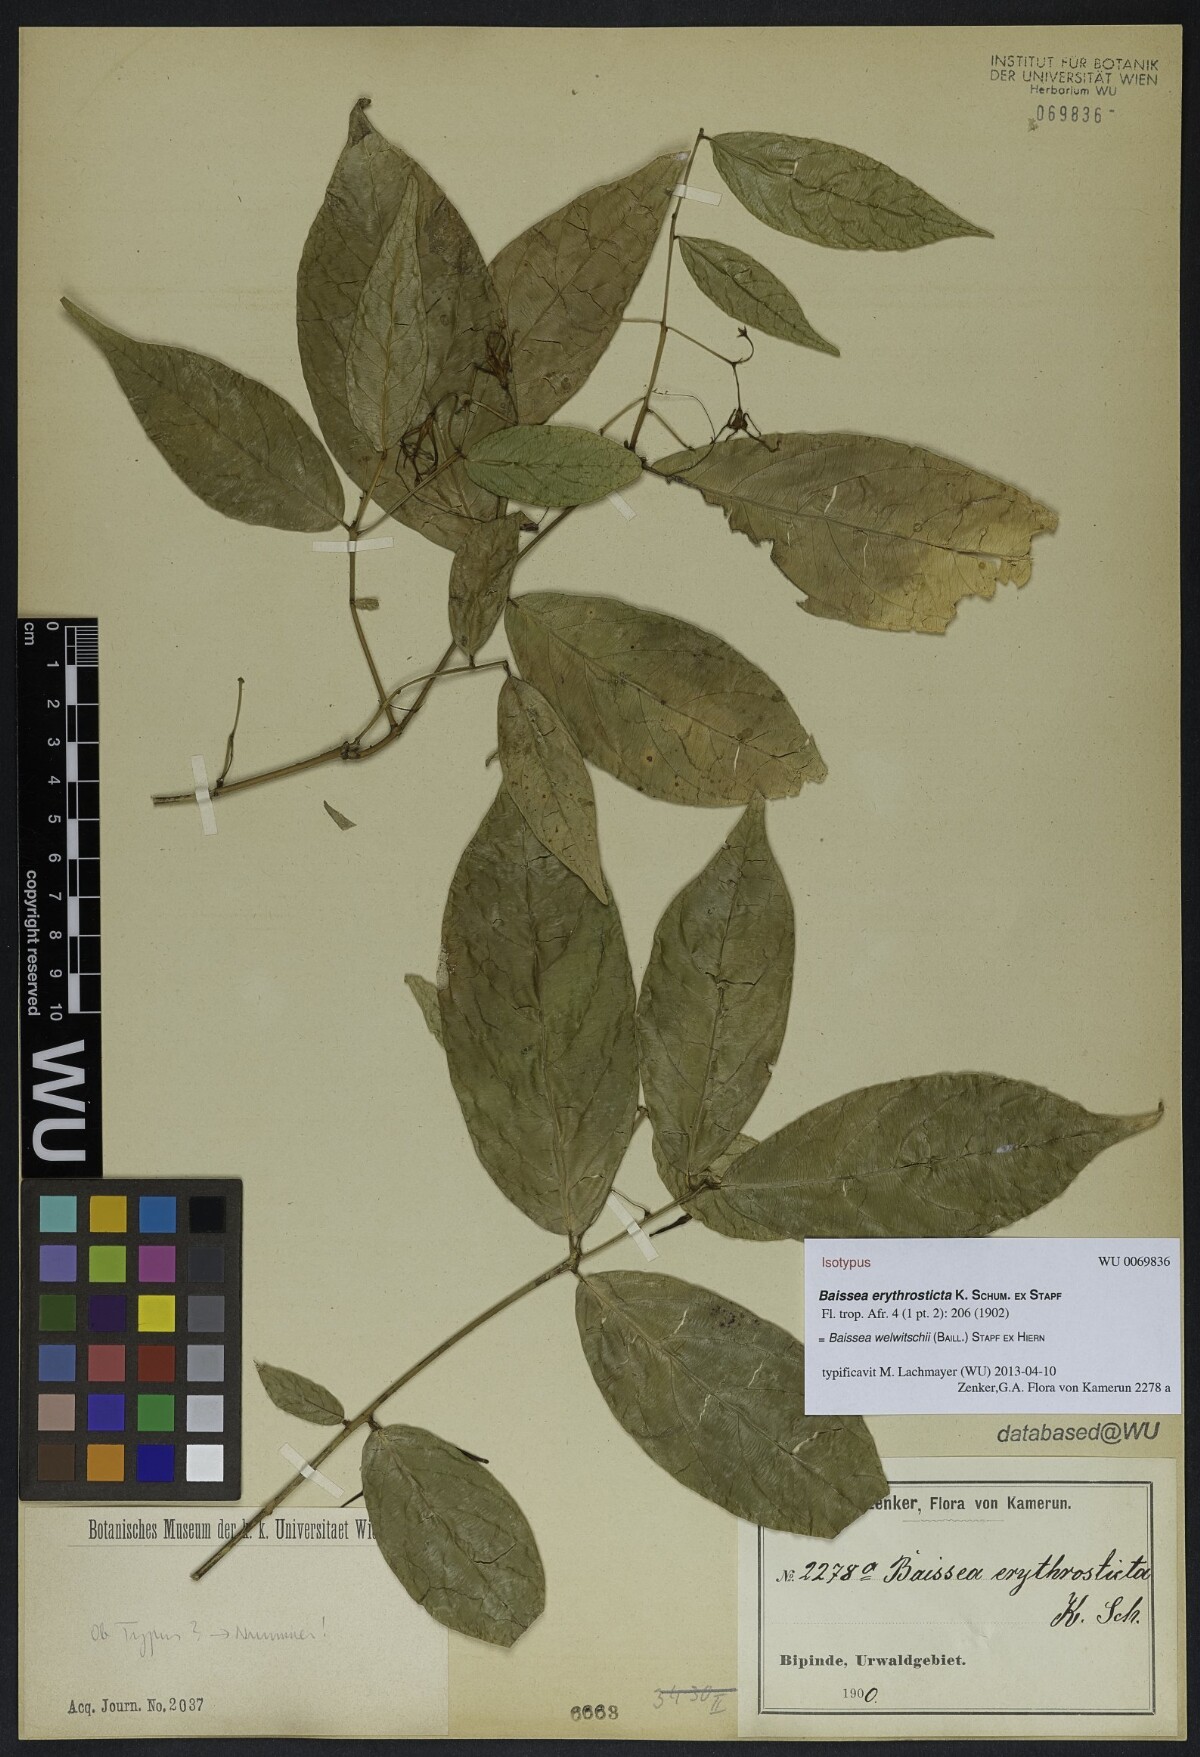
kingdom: Plantae
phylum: Tracheophyta
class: Magnoliopsida
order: Gentianales
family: Apocynaceae
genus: Baissea
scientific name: Baissea welwitschii
